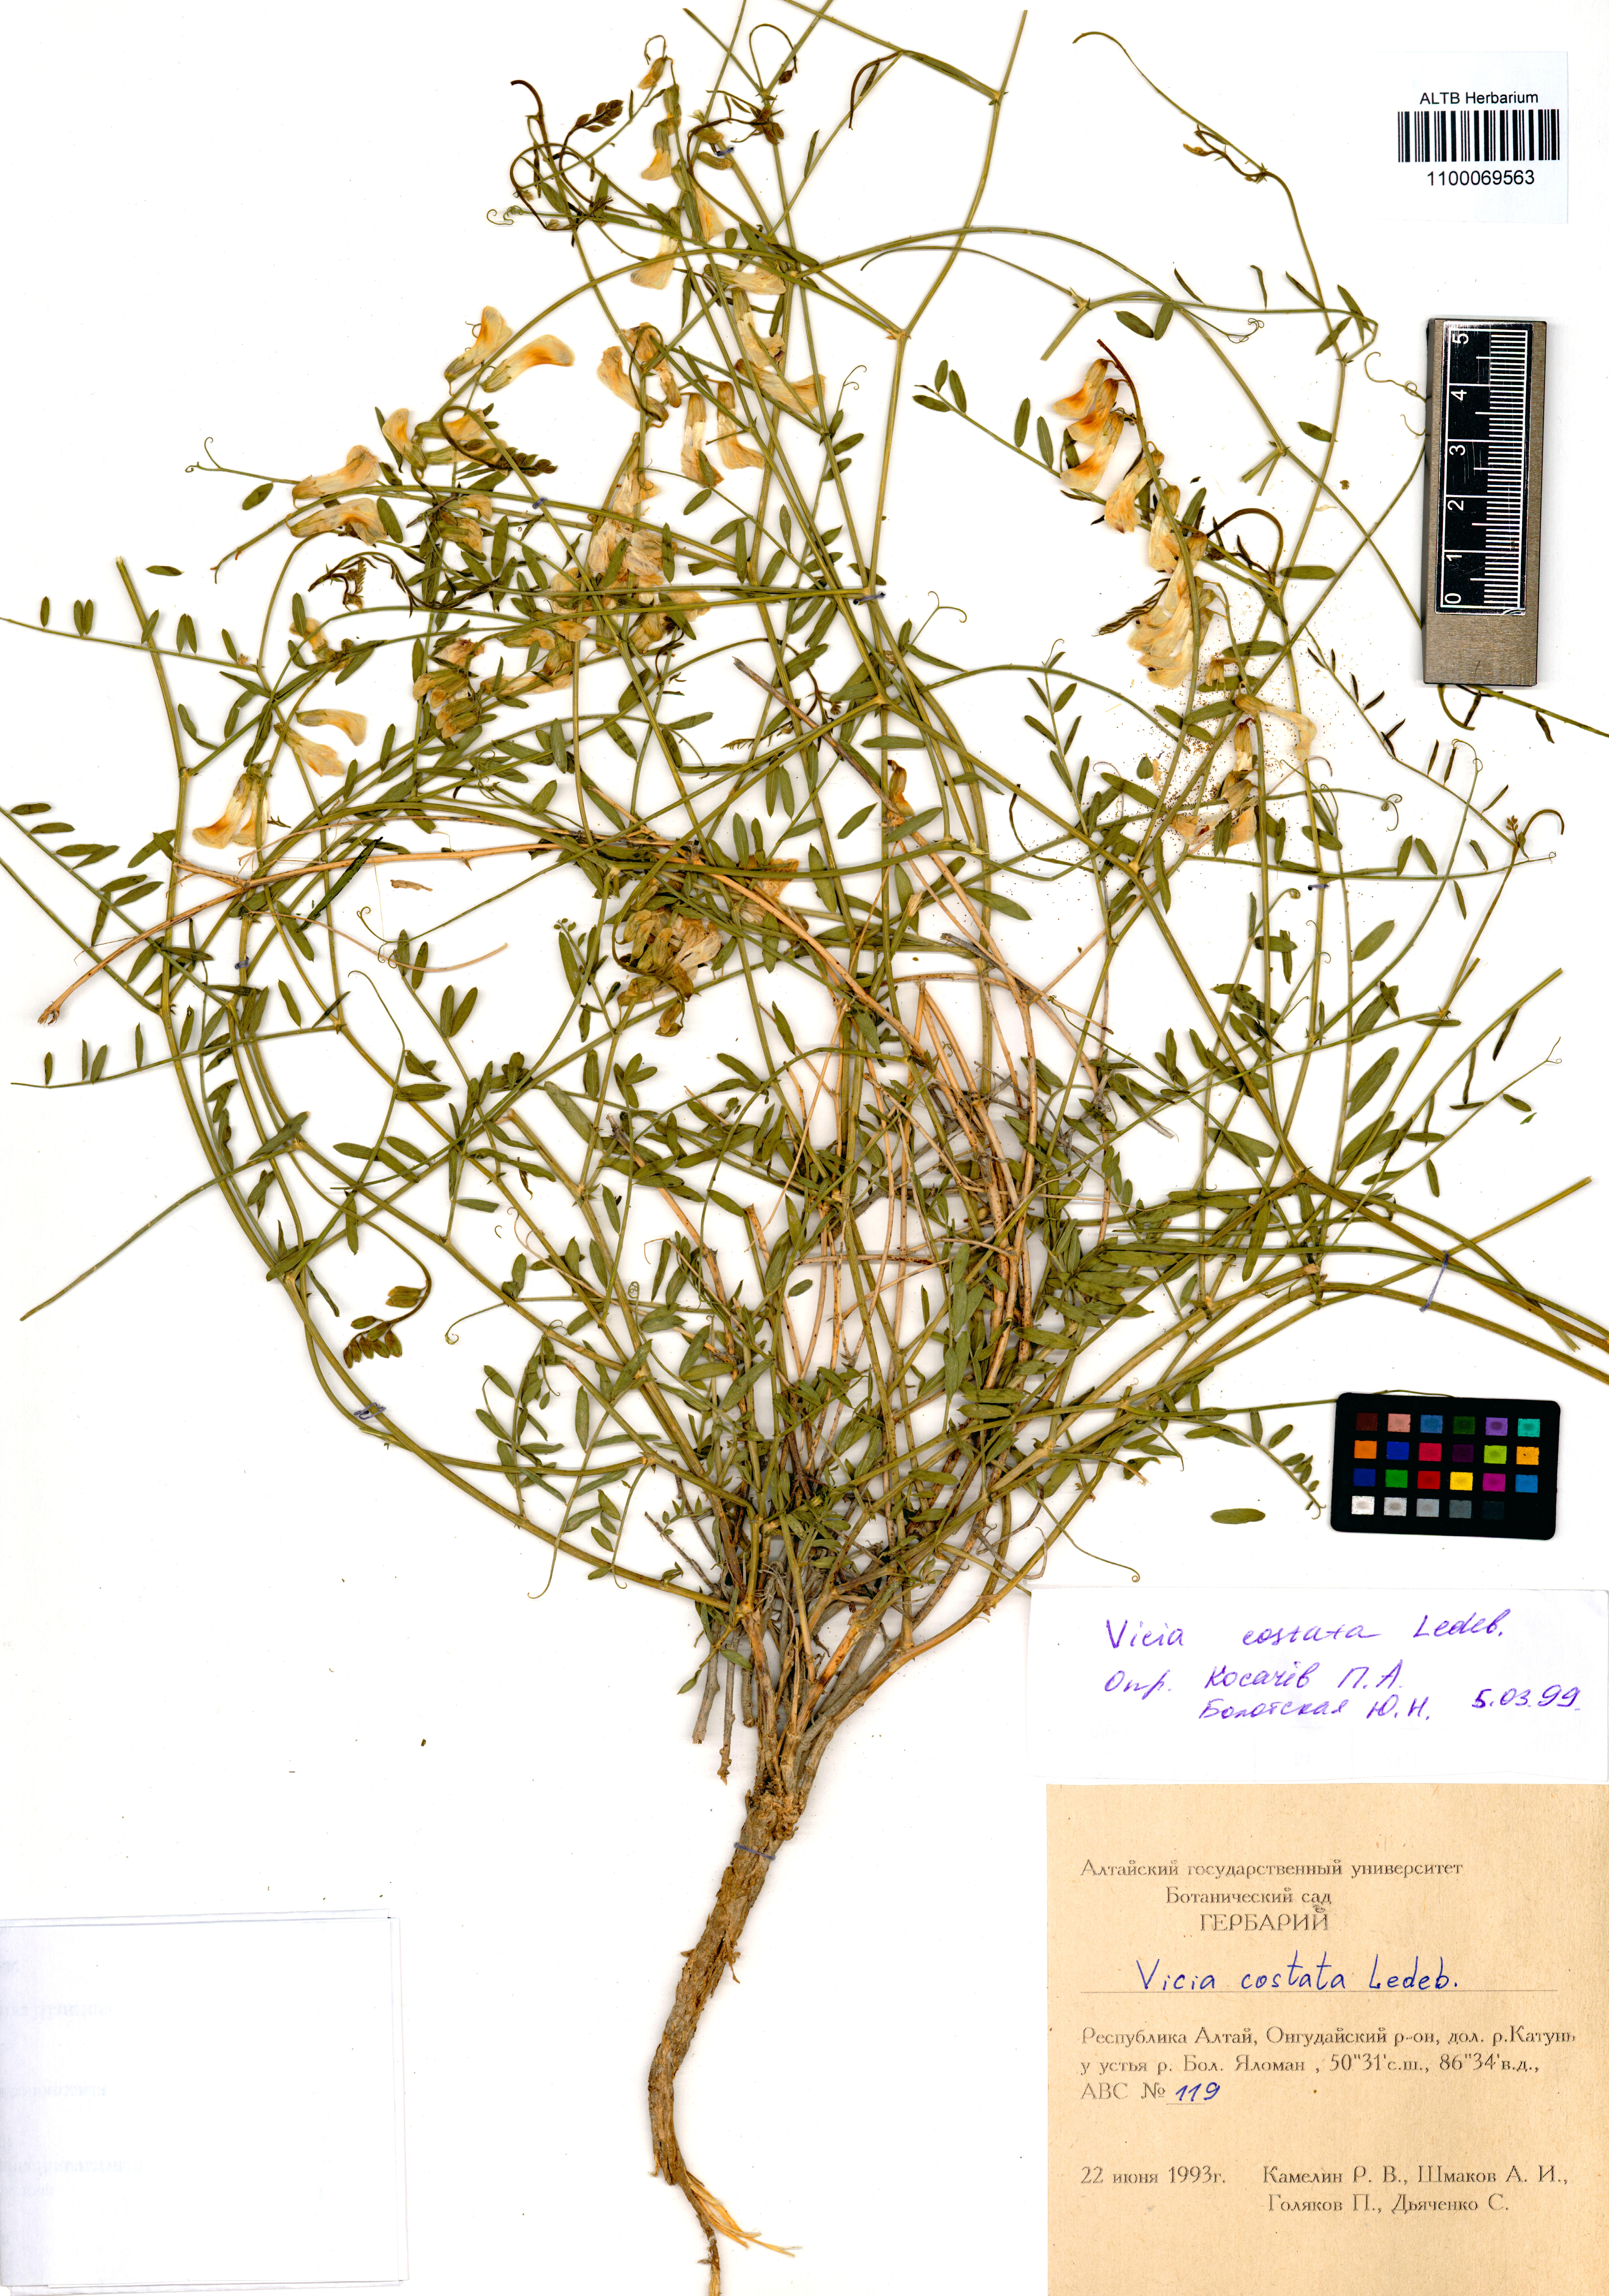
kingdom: Plantae
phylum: Tracheophyta
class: Magnoliopsida
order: Fabales
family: Fabaceae
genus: Vicia
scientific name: Vicia costata
